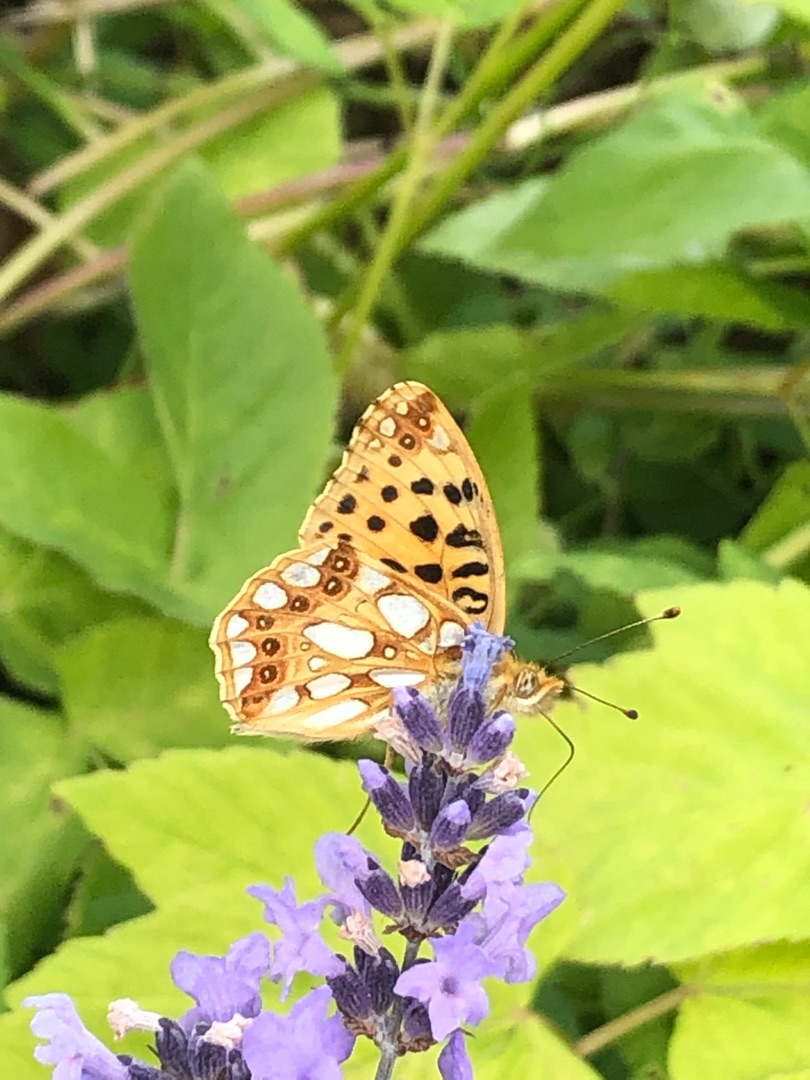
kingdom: Animalia
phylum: Arthropoda
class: Insecta
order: Lepidoptera
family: Nymphalidae
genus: Issoria
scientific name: Issoria lathonia
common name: Storplettet perlemorsommerfugl
